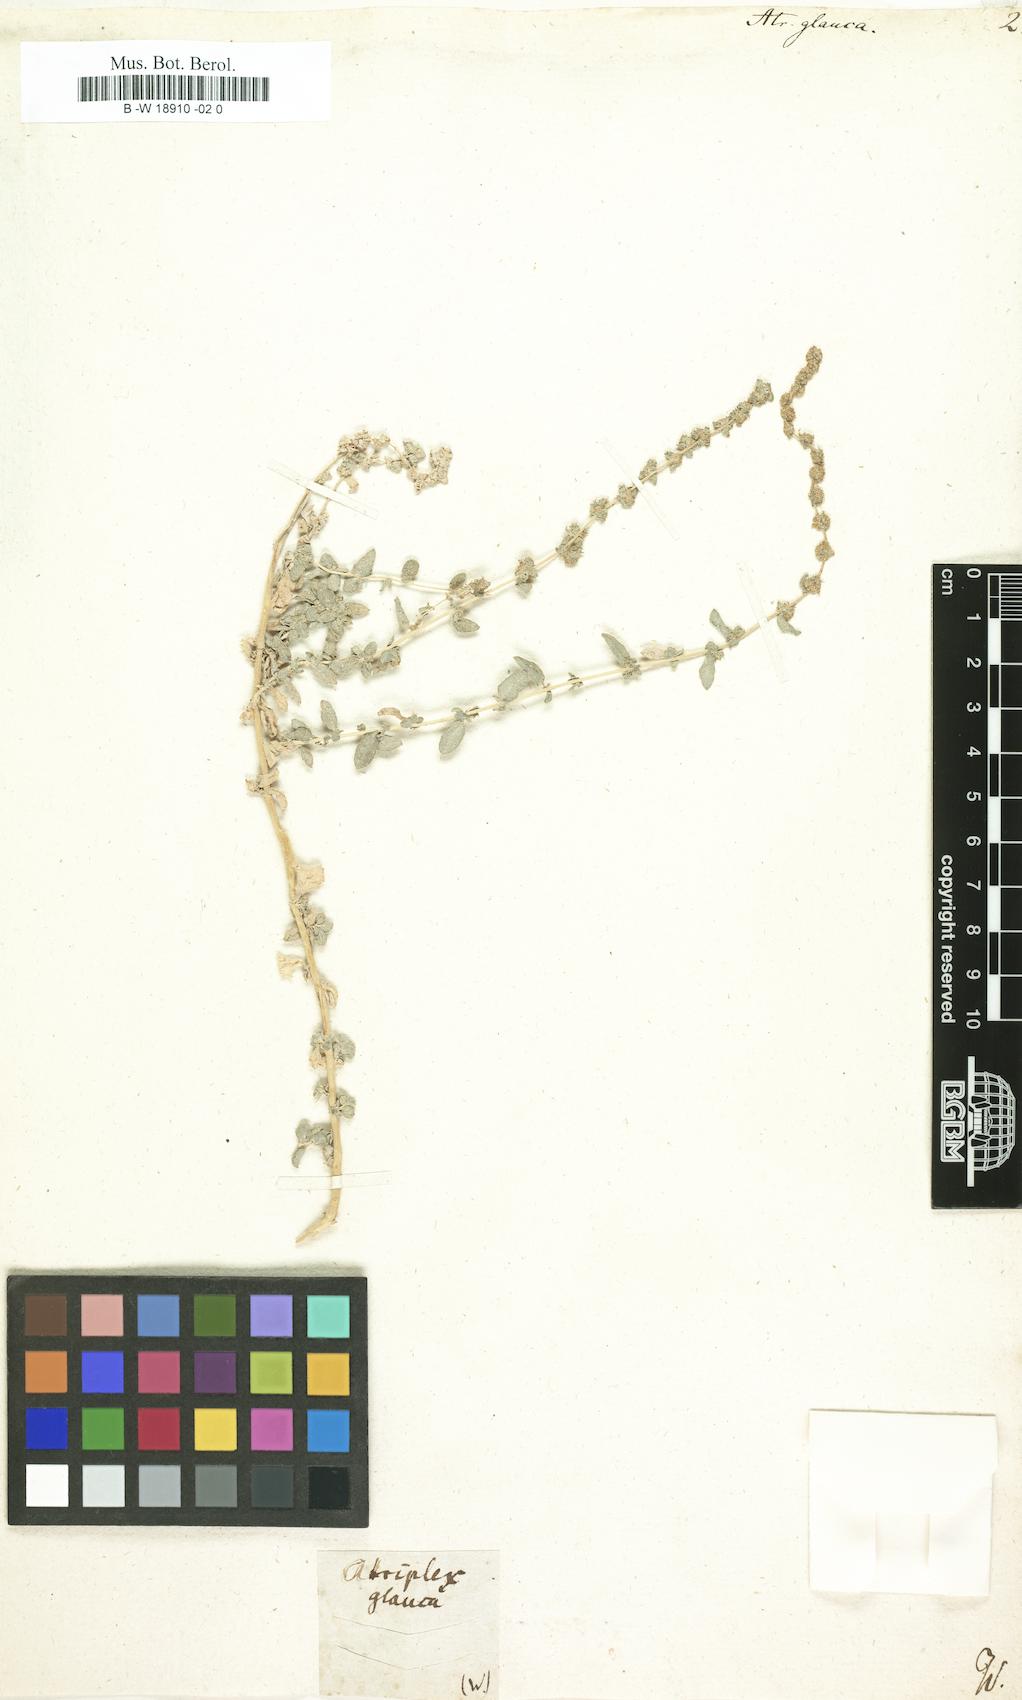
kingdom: Plantae
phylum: Tracheophyta
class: Magnoliopsida
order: Caryophyllales
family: Amaranthaceae
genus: Atriplex
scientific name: Atriplex glauca
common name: Waxy saltbush
